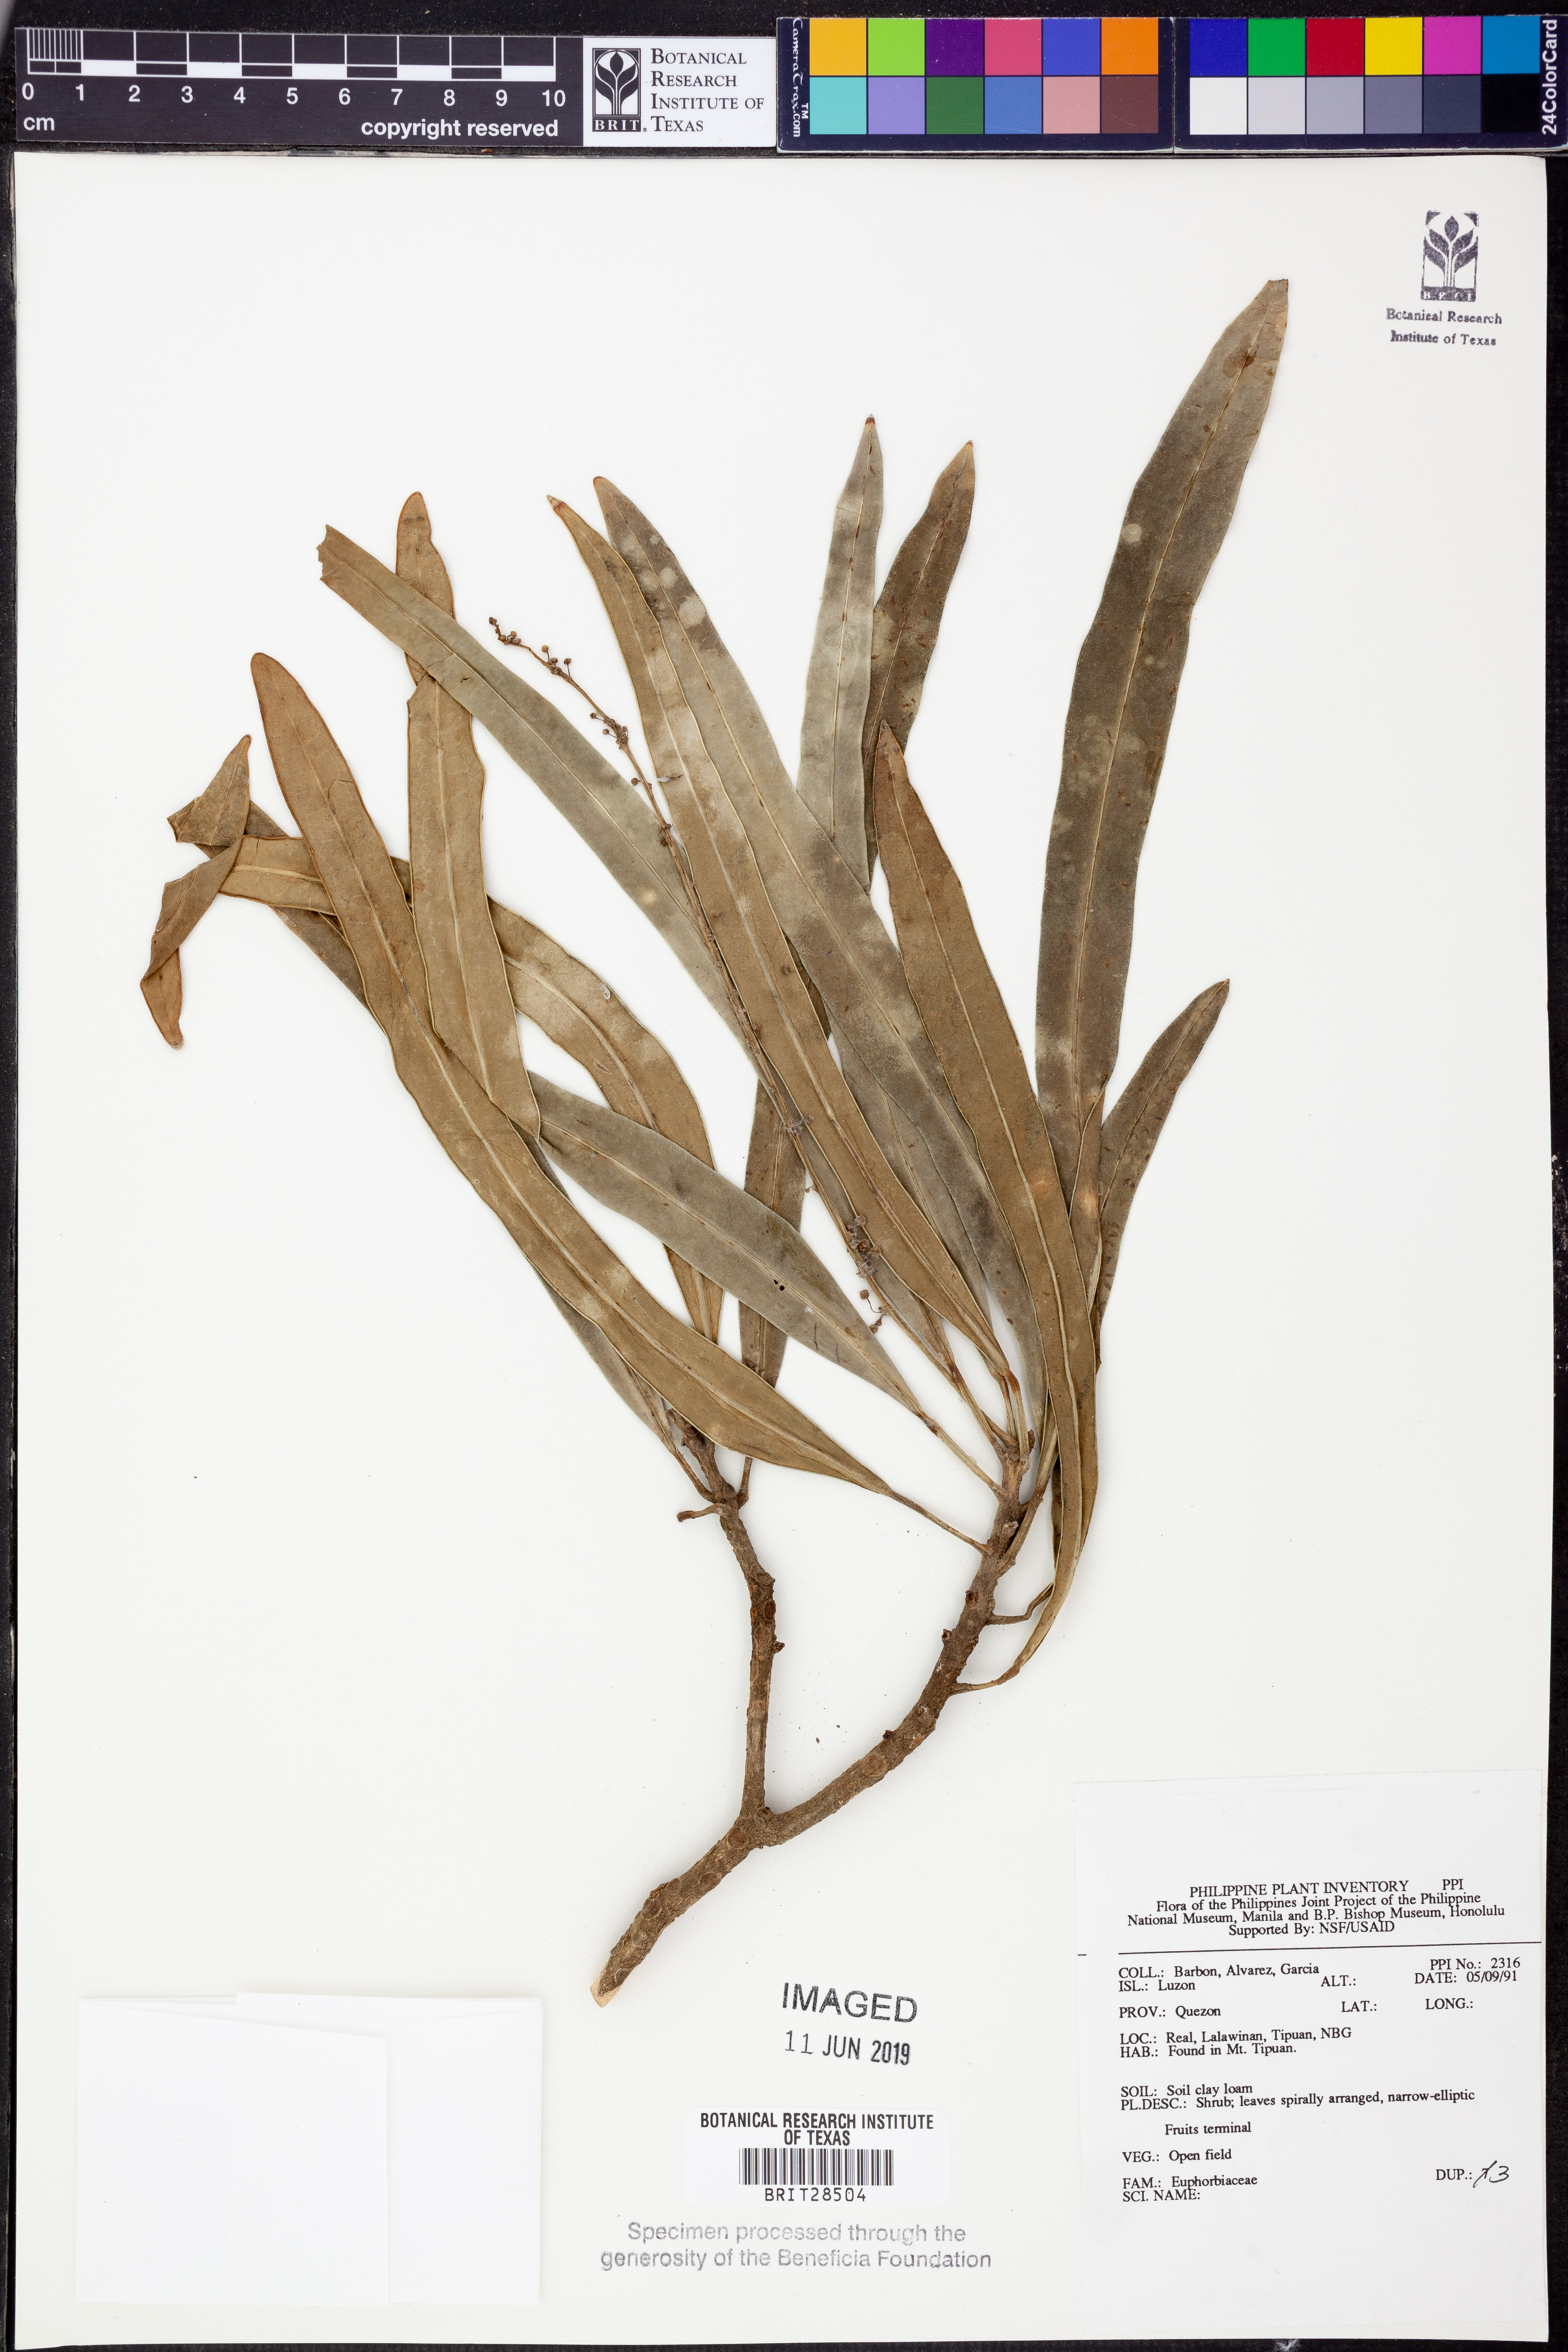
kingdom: Plantae
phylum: Tracheophyta
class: Magnoliopsida
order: Malpighiales
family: Euphorbiaceae
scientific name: Euphorbiaceae
